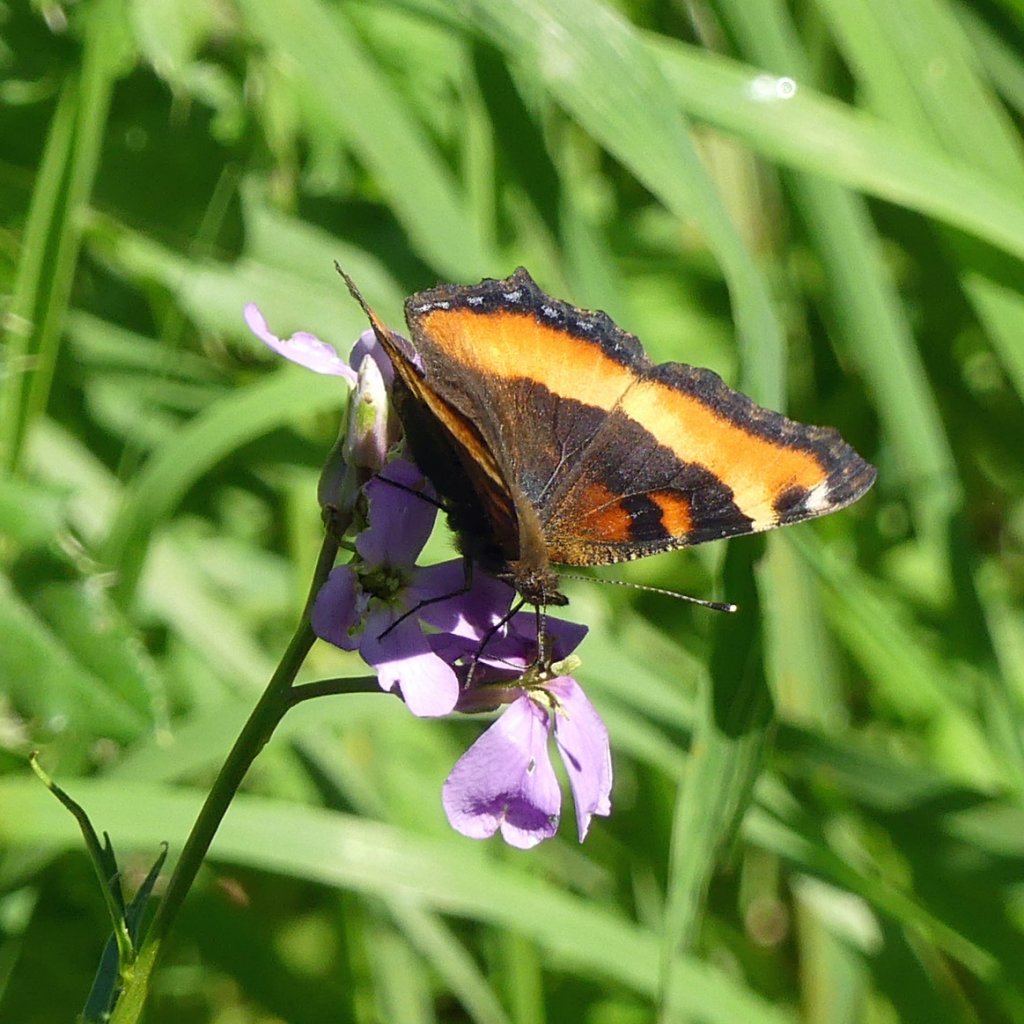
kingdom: Animalia
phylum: Arthropoda
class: Insecta
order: Lepidoptera
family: Nymphalidae
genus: Aglais
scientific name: Aglais milberti
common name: Milbert's Tortoiseshell
